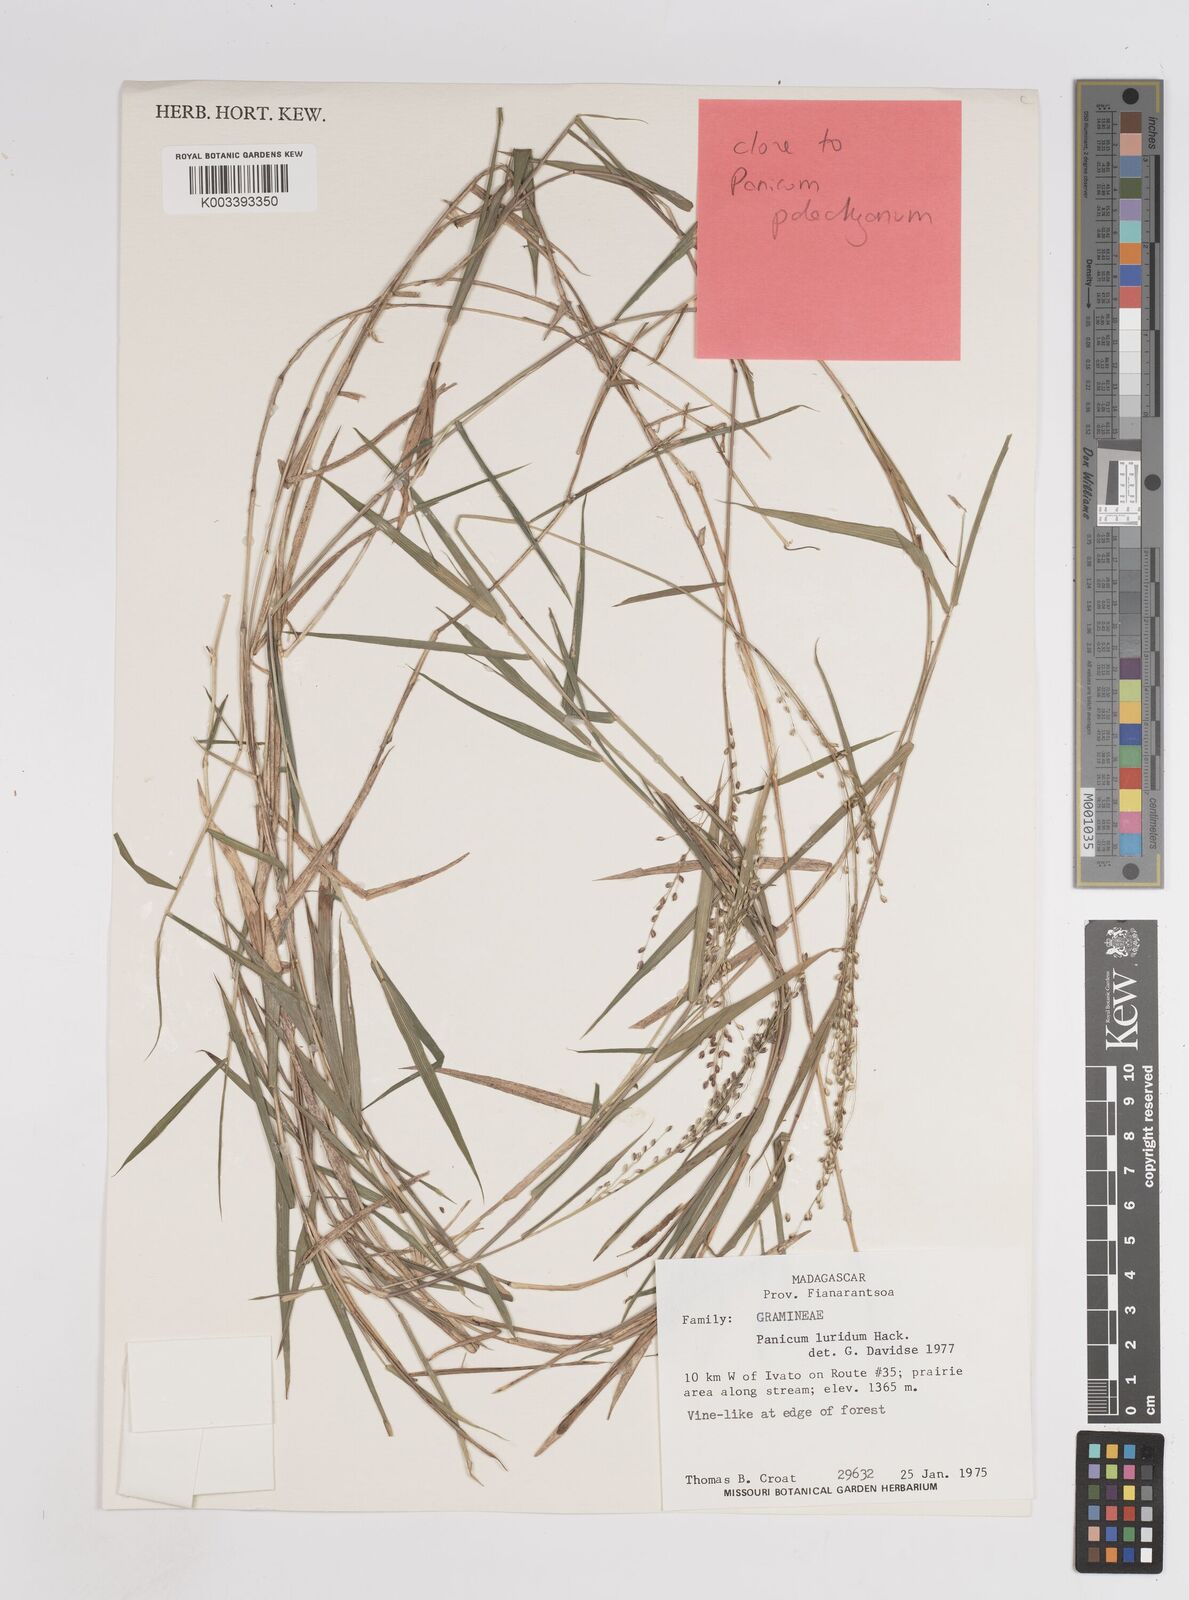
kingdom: Plantae
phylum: Tracheophyta
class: Liliopsida
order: Poales
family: Poaceae
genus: Panicum
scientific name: Panicum
